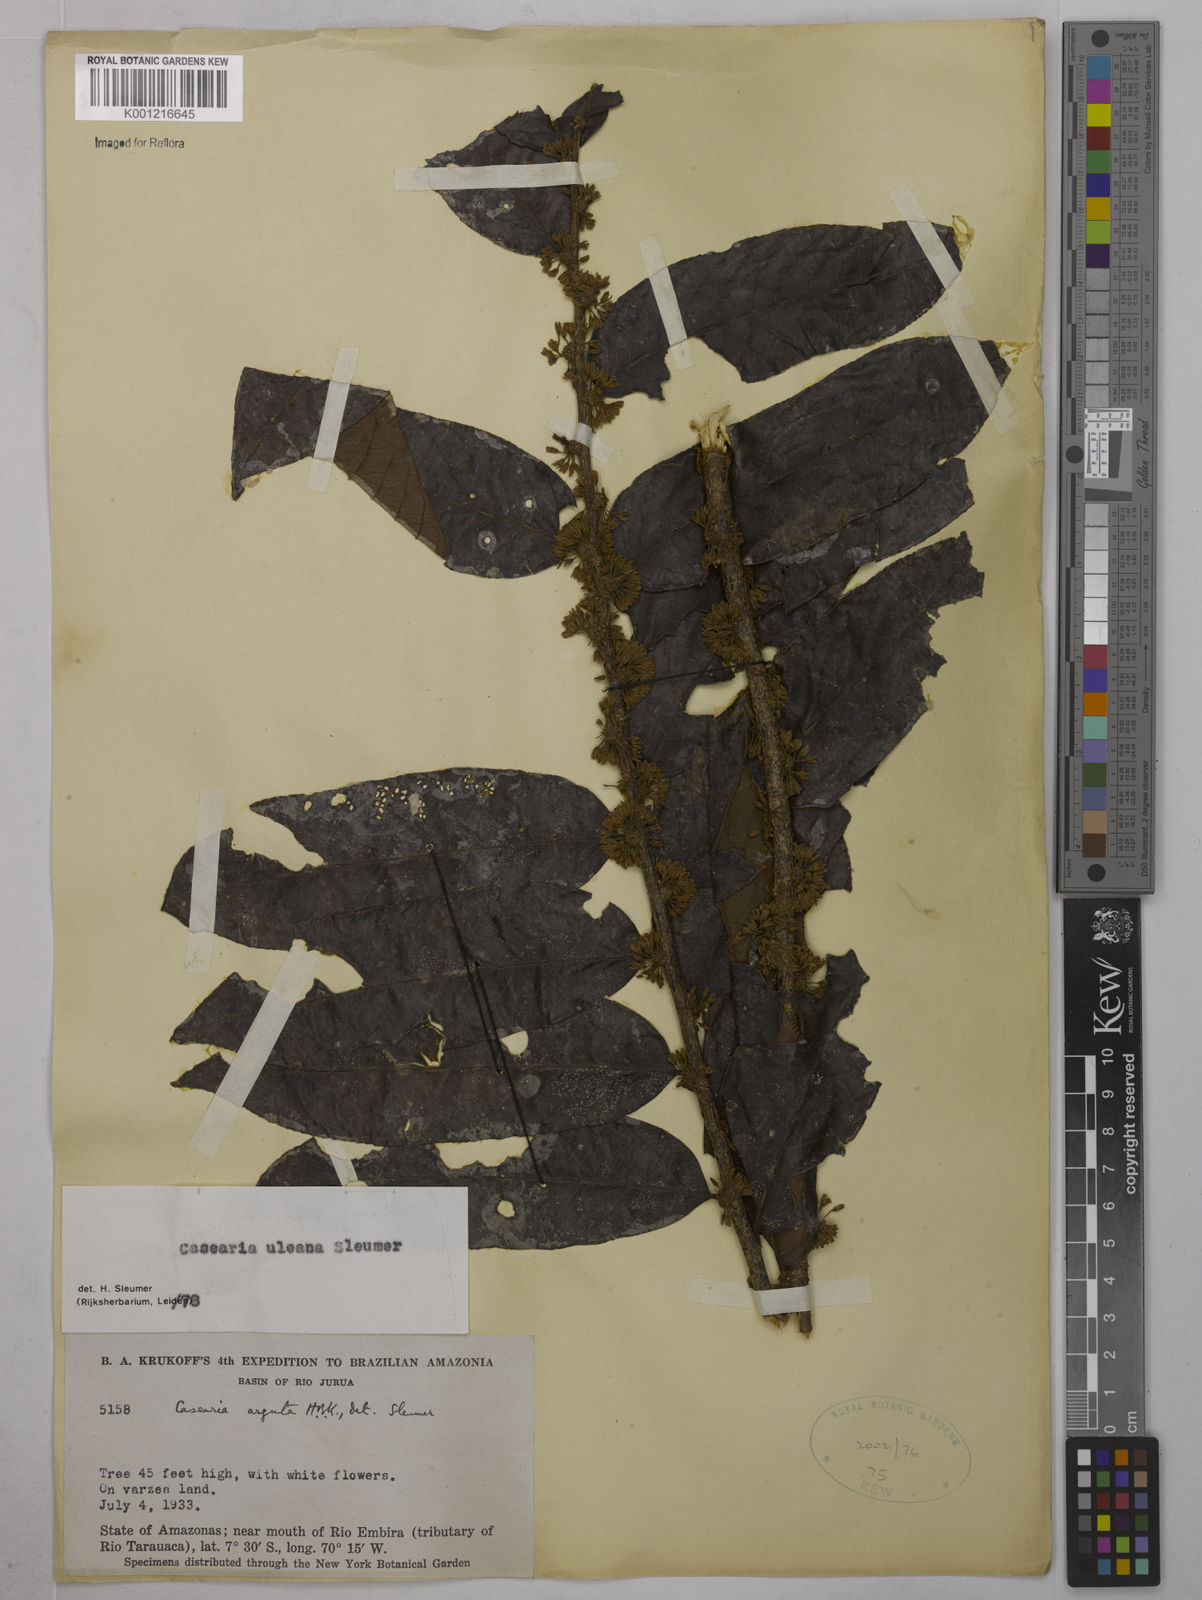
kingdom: Plantae
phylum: Tracheophyta
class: Magnoliopsida
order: Malpighiales
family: Salicaceae
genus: Casearia
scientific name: Casearia uleana
